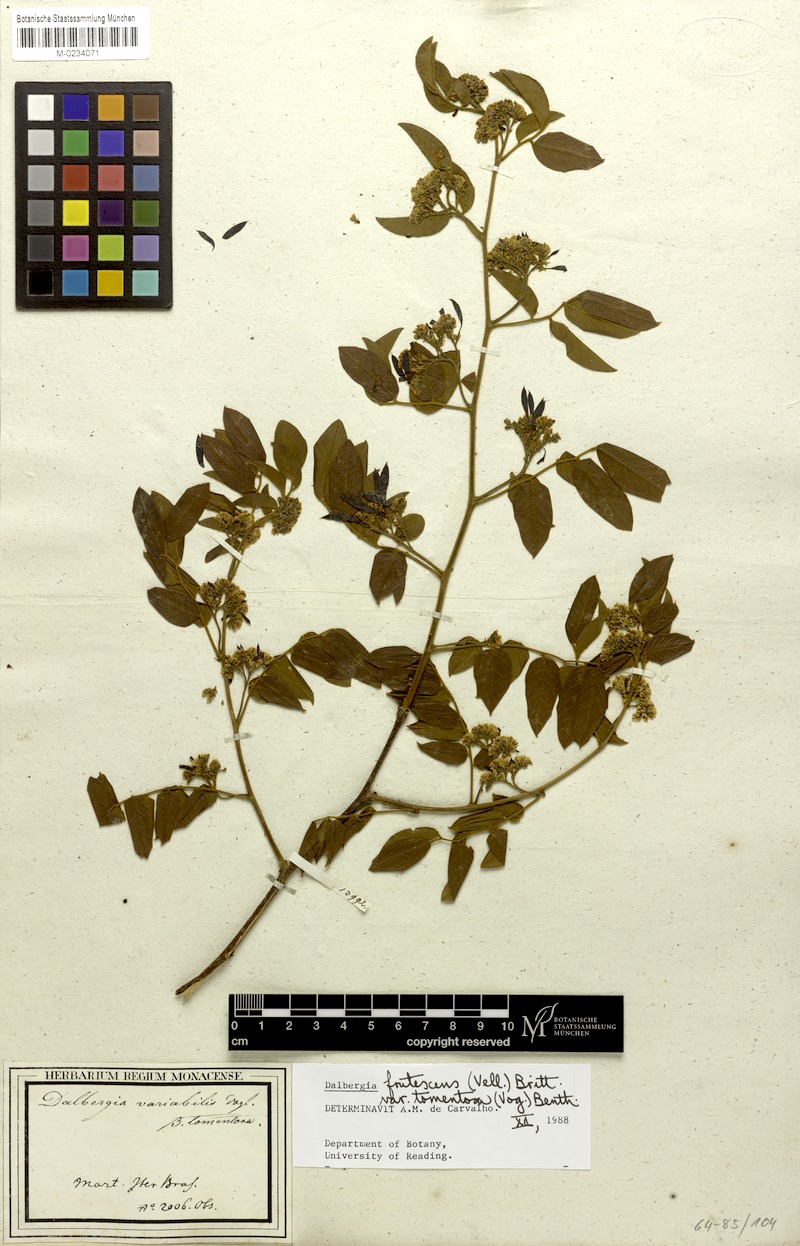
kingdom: Plantae
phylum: Tracheophyta
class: Magnoliopsida
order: Fabales
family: Fabaceae
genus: Dalbergia
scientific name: Dalbergia frutescens
